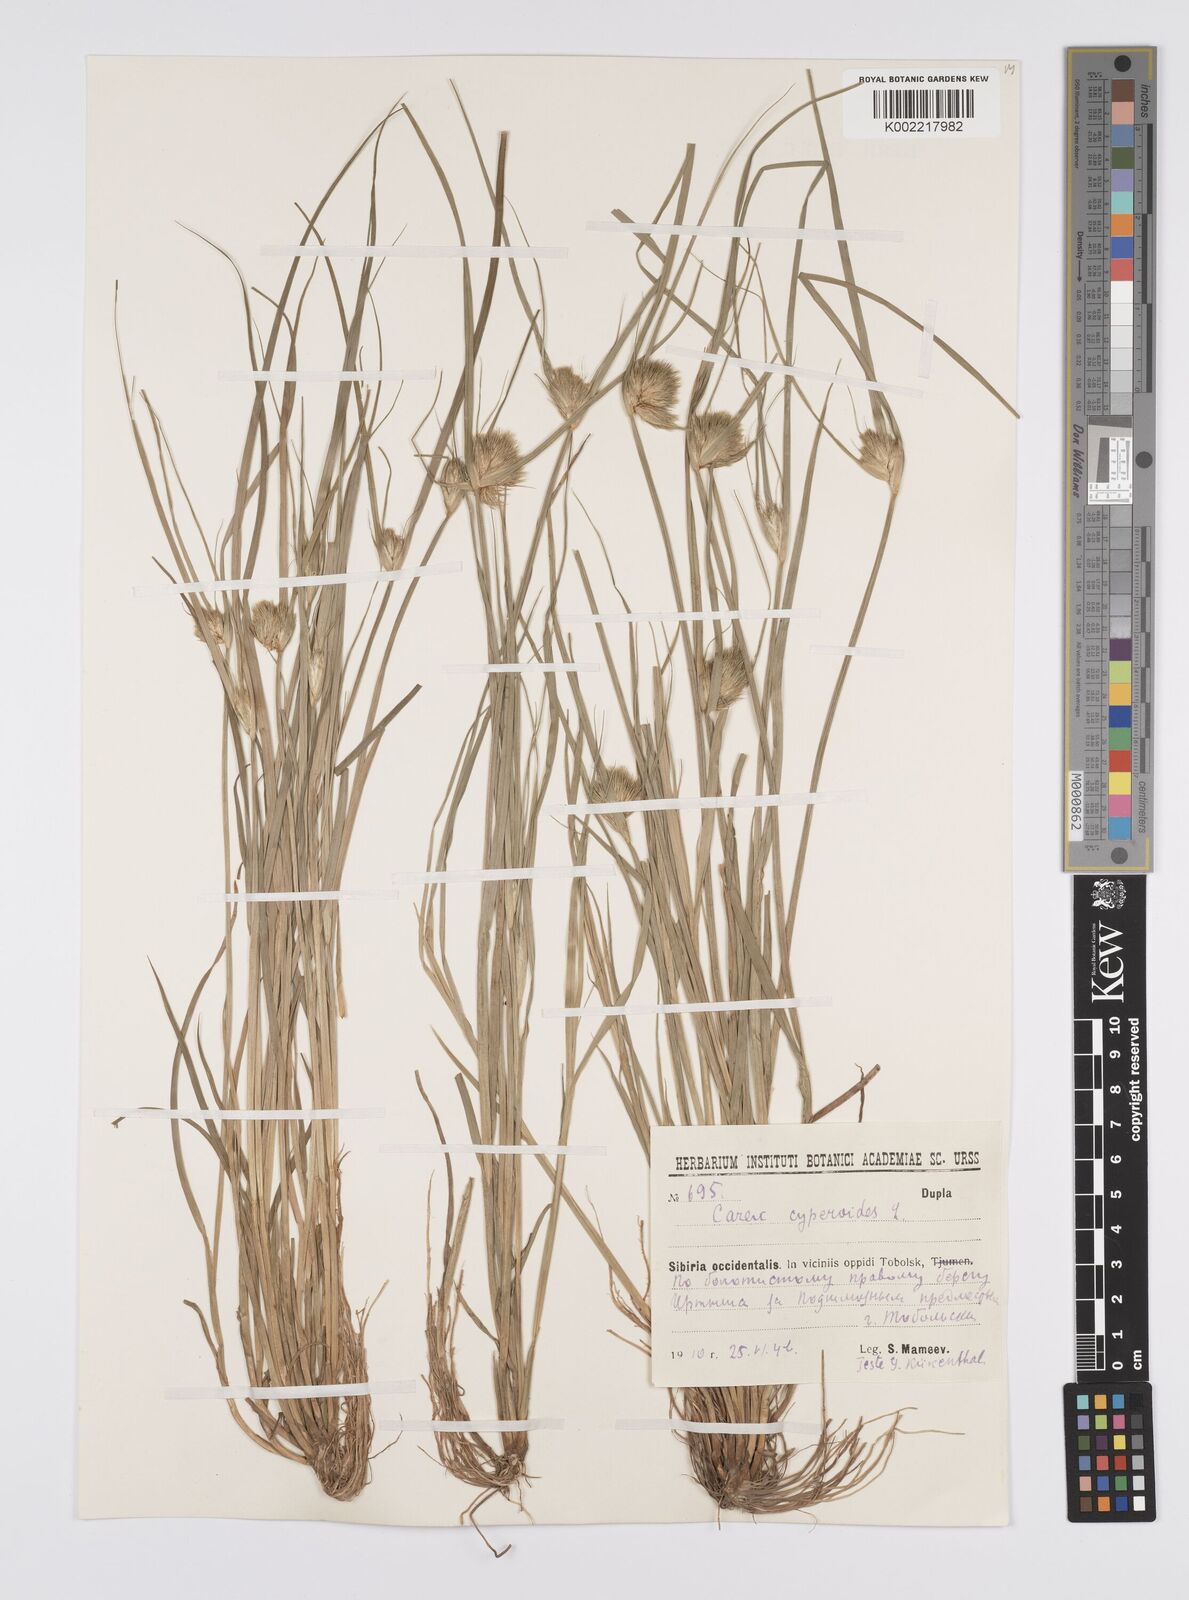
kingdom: Plantae
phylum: Tracheophyta
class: Liliopsida
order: Poales
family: Cyperaceae
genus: Carex
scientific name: Carex bohemica
